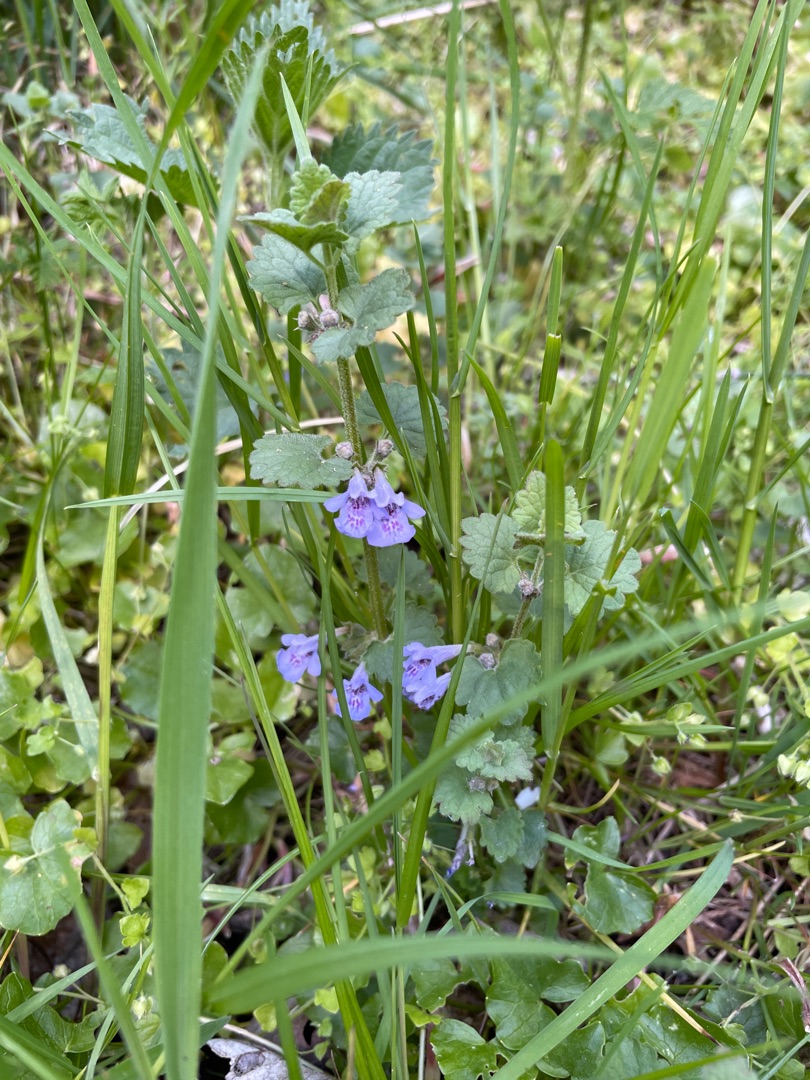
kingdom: Plantae
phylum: Tracheophyta
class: Magnoliopsida
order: Lamiales
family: Lamiaceae
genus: Glechoma
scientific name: Glechoma hederacea
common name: Korsknap
